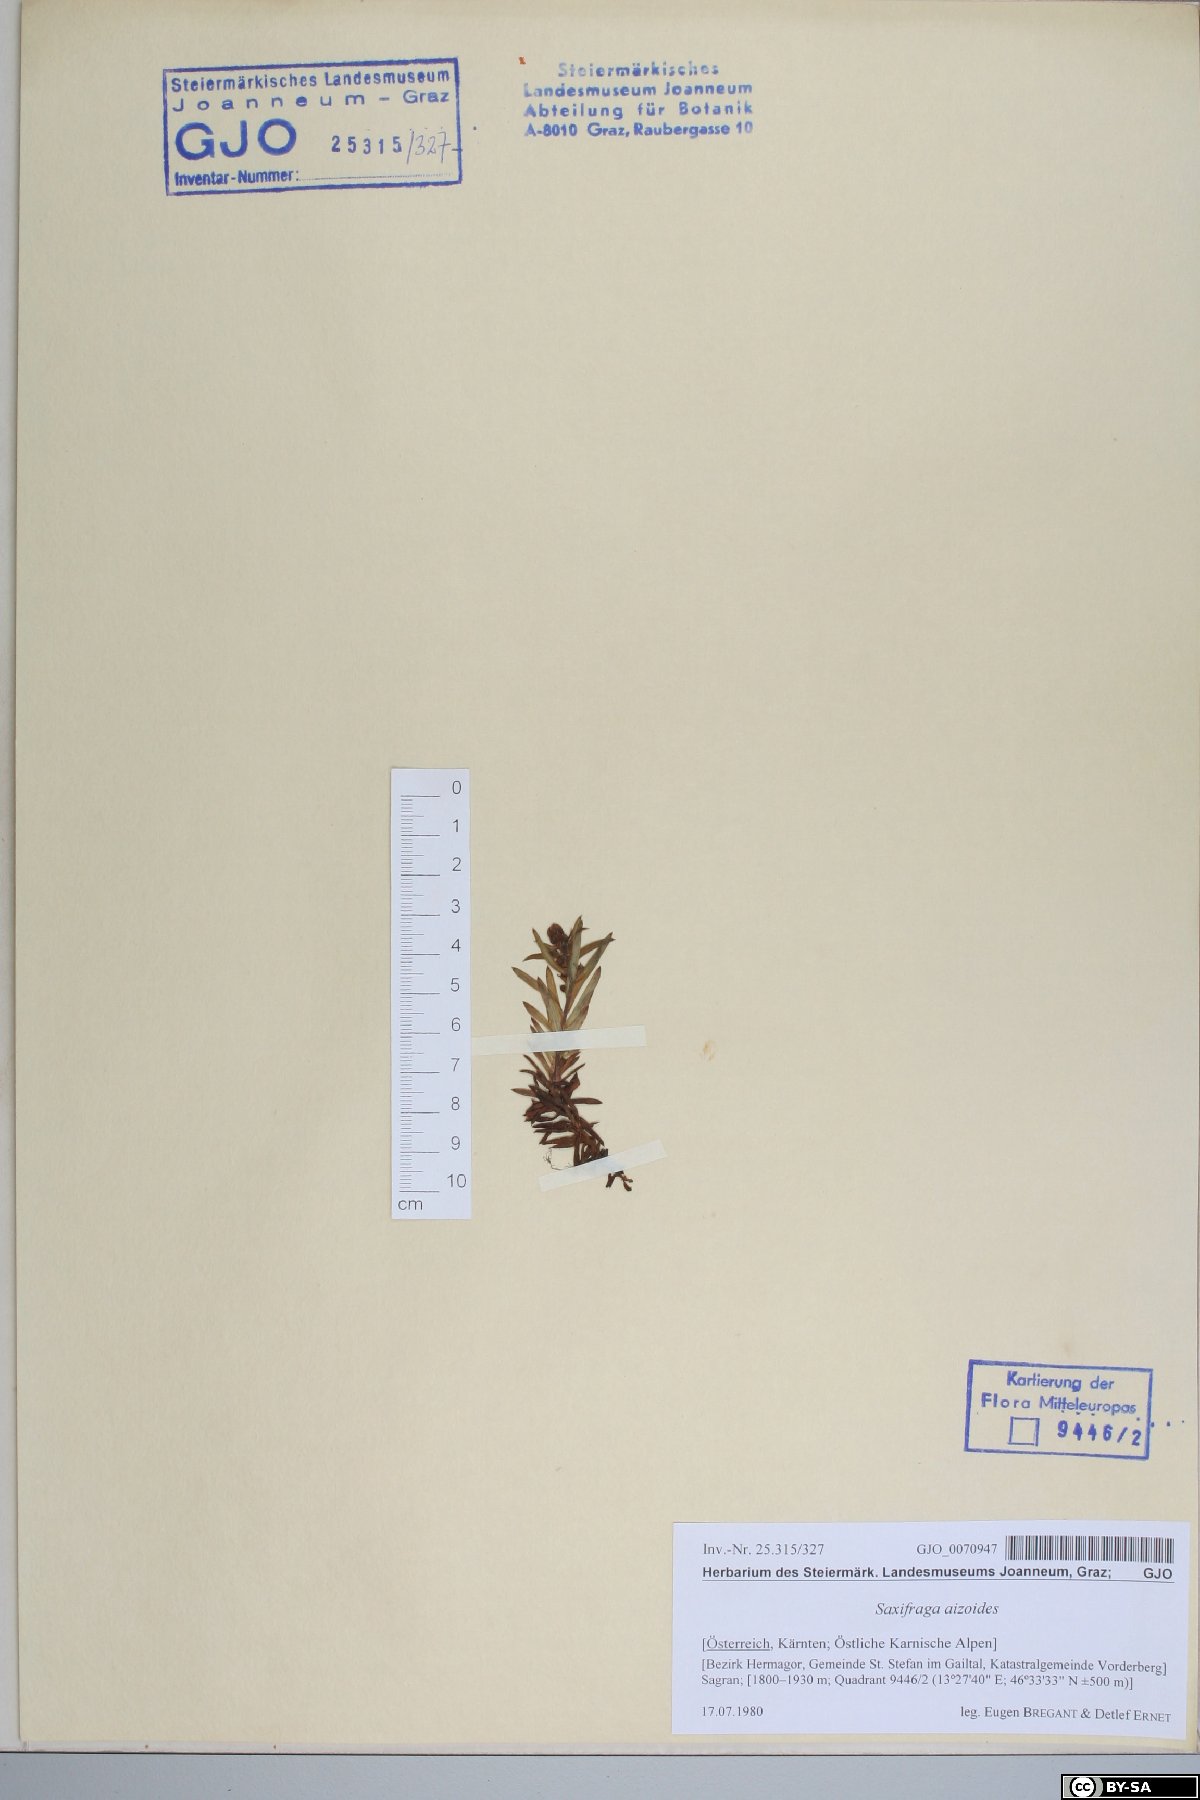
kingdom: Plantae
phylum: Tracheophyta
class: Magnoliopsida
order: Saxifragales
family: Saxifragaceae
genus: Saxifraga
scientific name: Saxifraga aizoides
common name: Yellow mountain saxifrage
